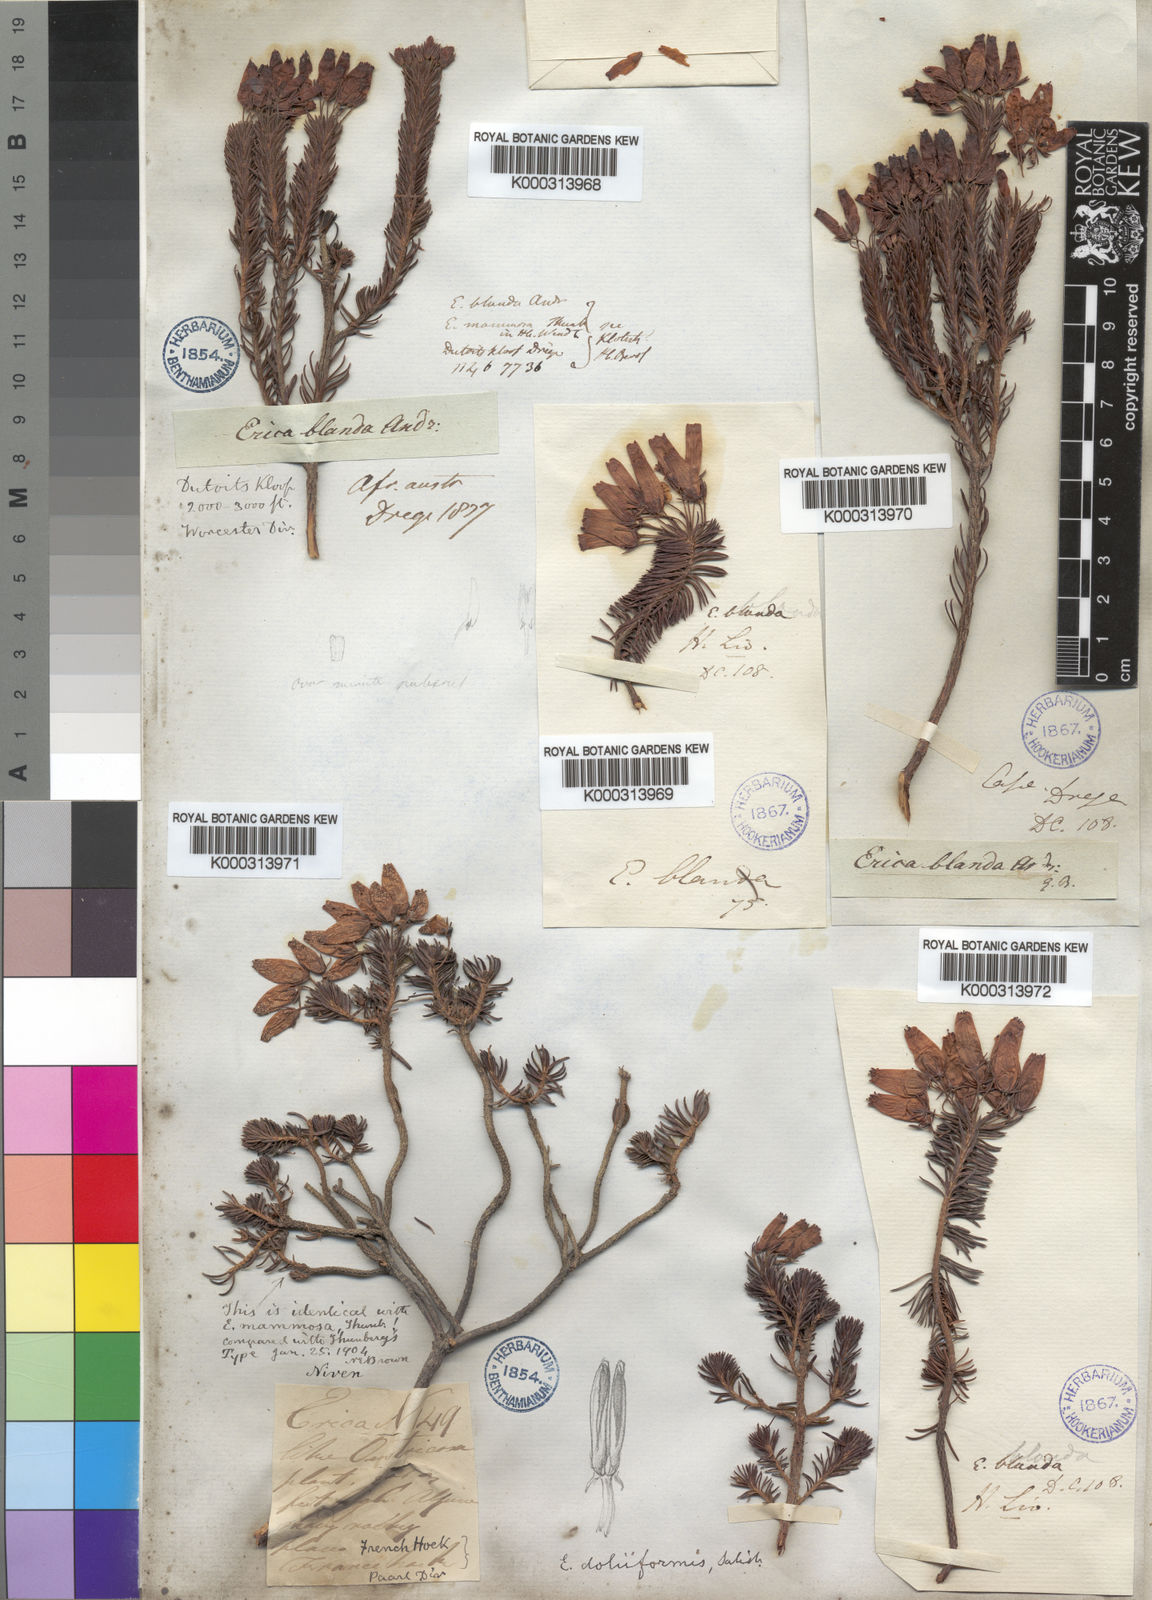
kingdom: Plantae
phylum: Tracheophyta
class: Magnoliopsida
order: Ericales
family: Ericaceae
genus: Erica
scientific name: Erica doliiformis
